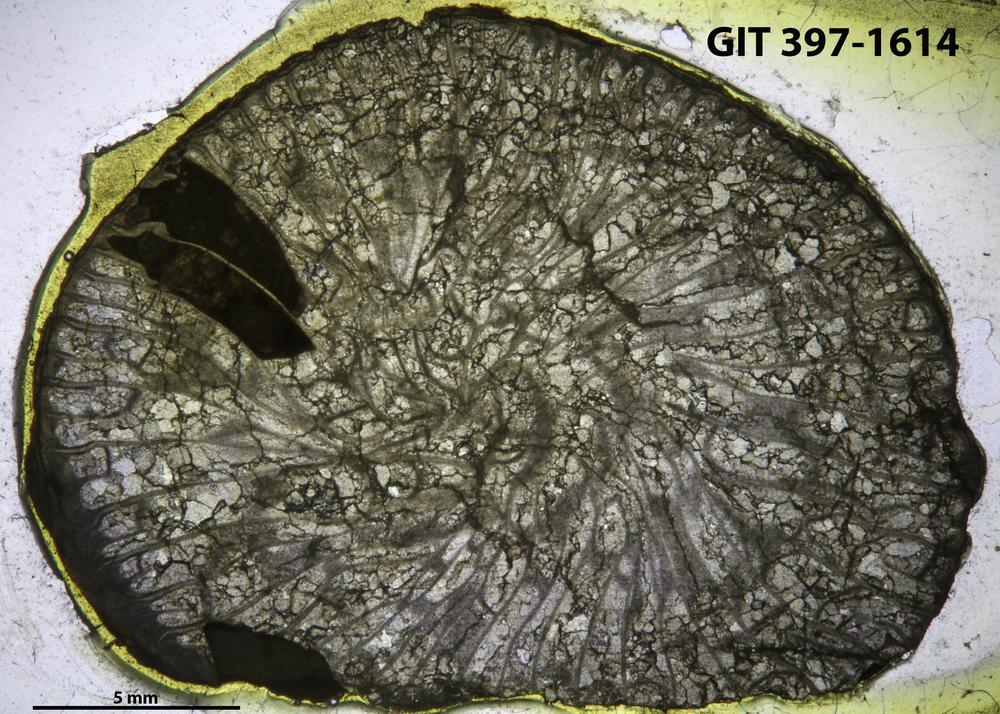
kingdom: Animalia
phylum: Cnidaria
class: Anthozoa
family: Streptelasmatidae
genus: Brachyelasma
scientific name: Brachyelasma estonicum
